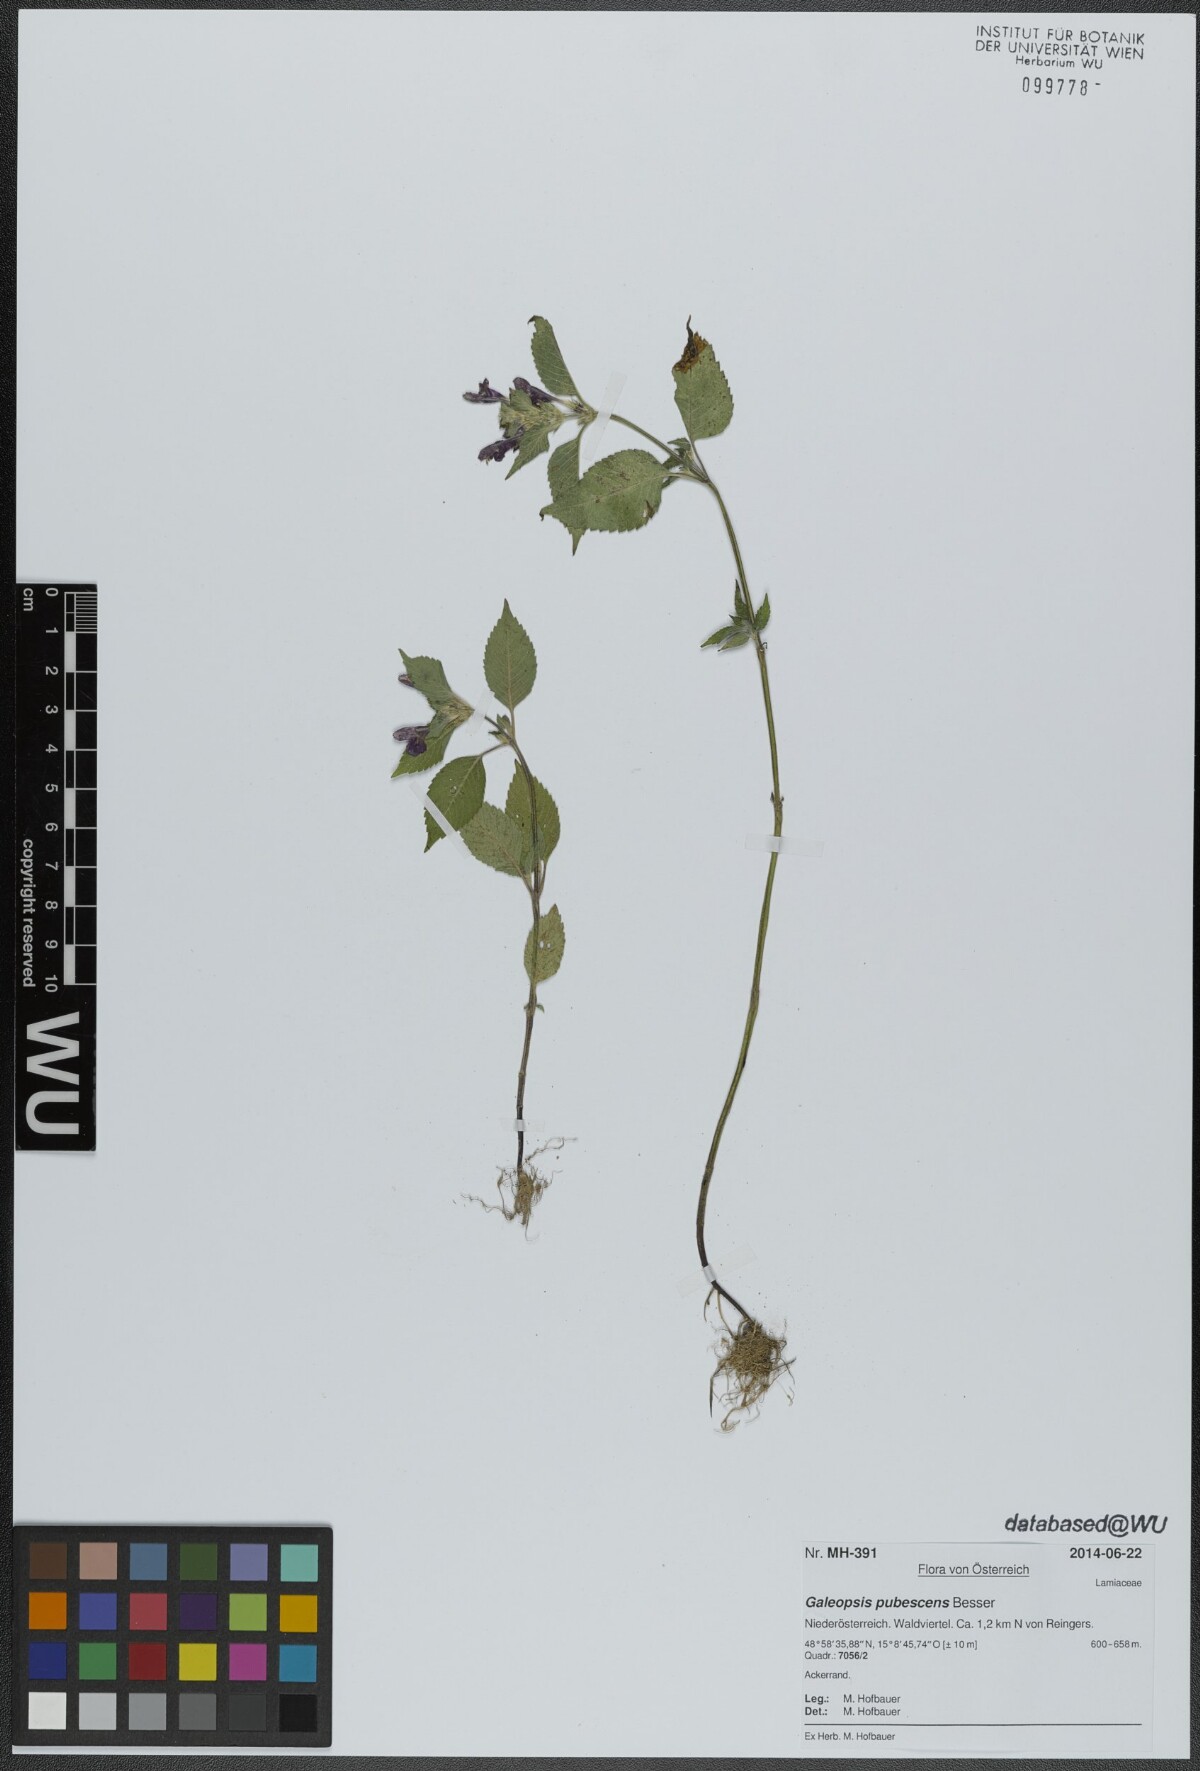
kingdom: Plantae
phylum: Tracheophyta
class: Magnoliopsida
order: Lamiales
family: Lamiaceae
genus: Galeopsis
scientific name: Galeopsis pubescens
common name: Downy hemp-nettle
